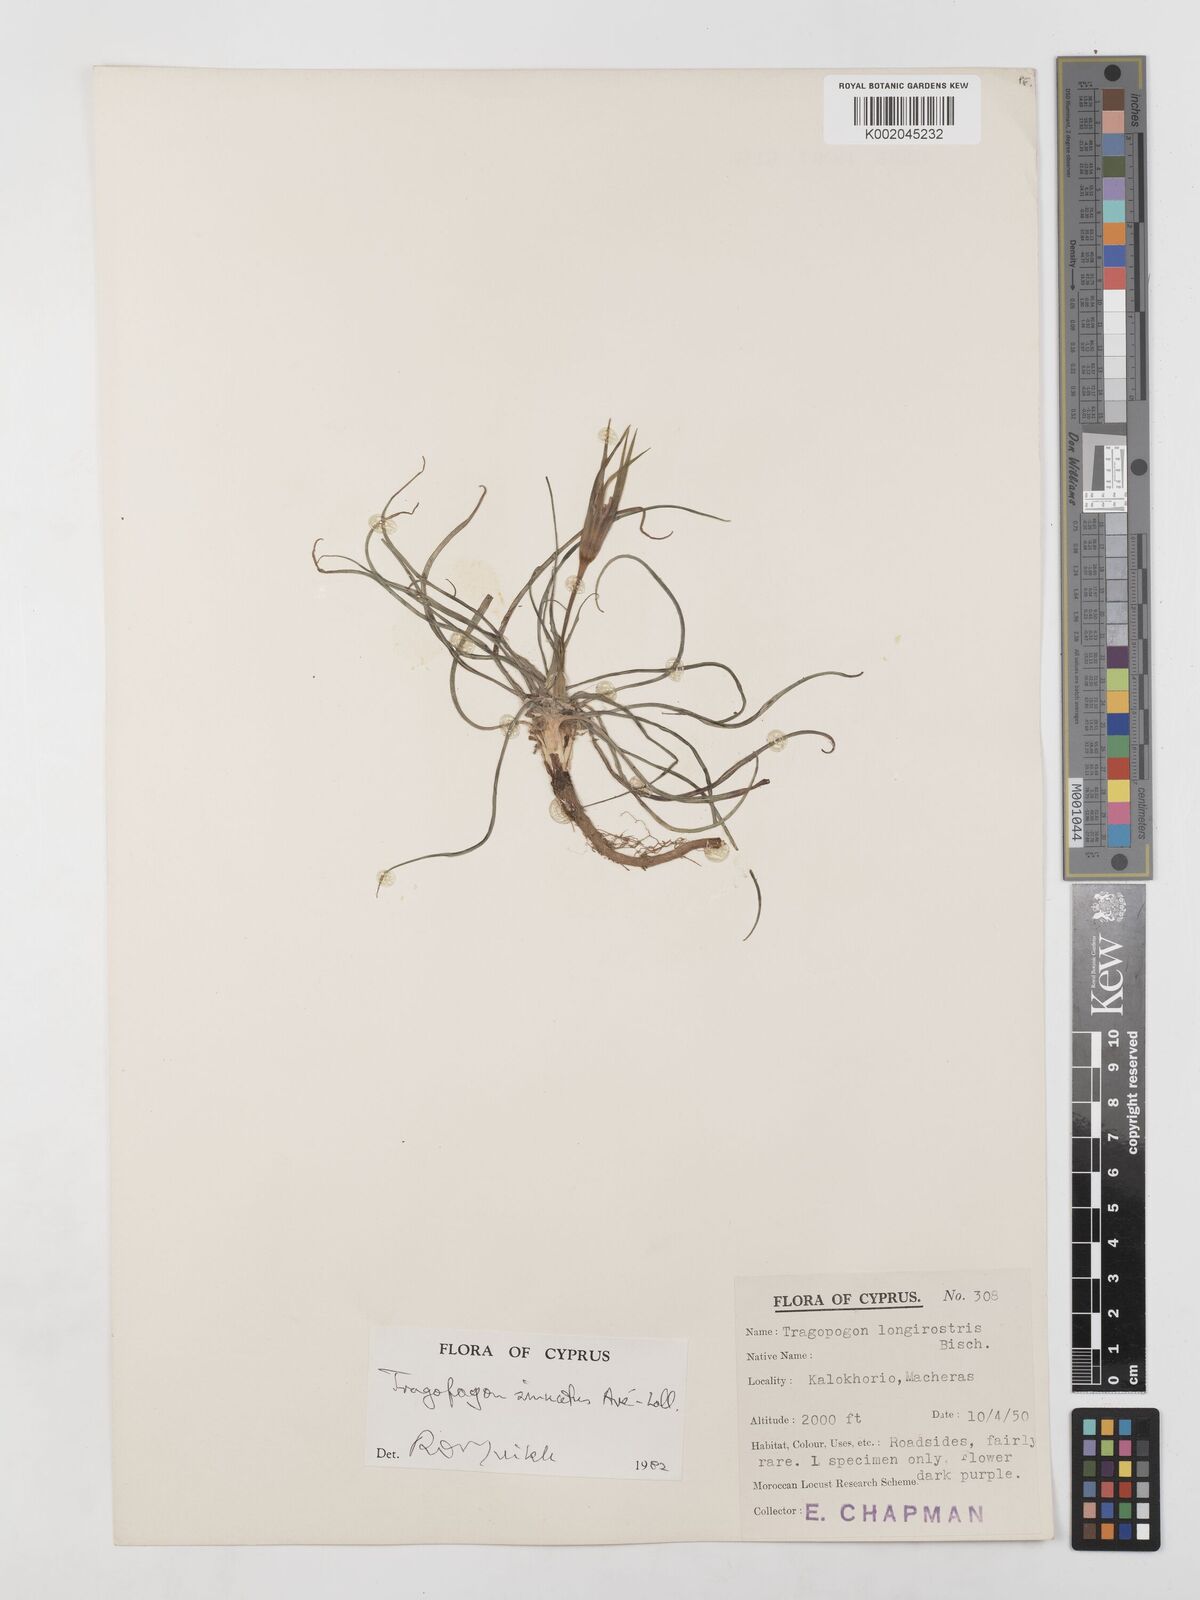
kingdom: Plantae
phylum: Tracheophyta
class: Magnoliopsida
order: Asterales
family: Asteraceae
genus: Tragopogon
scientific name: Tragopogon porrifolius
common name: Salsify
